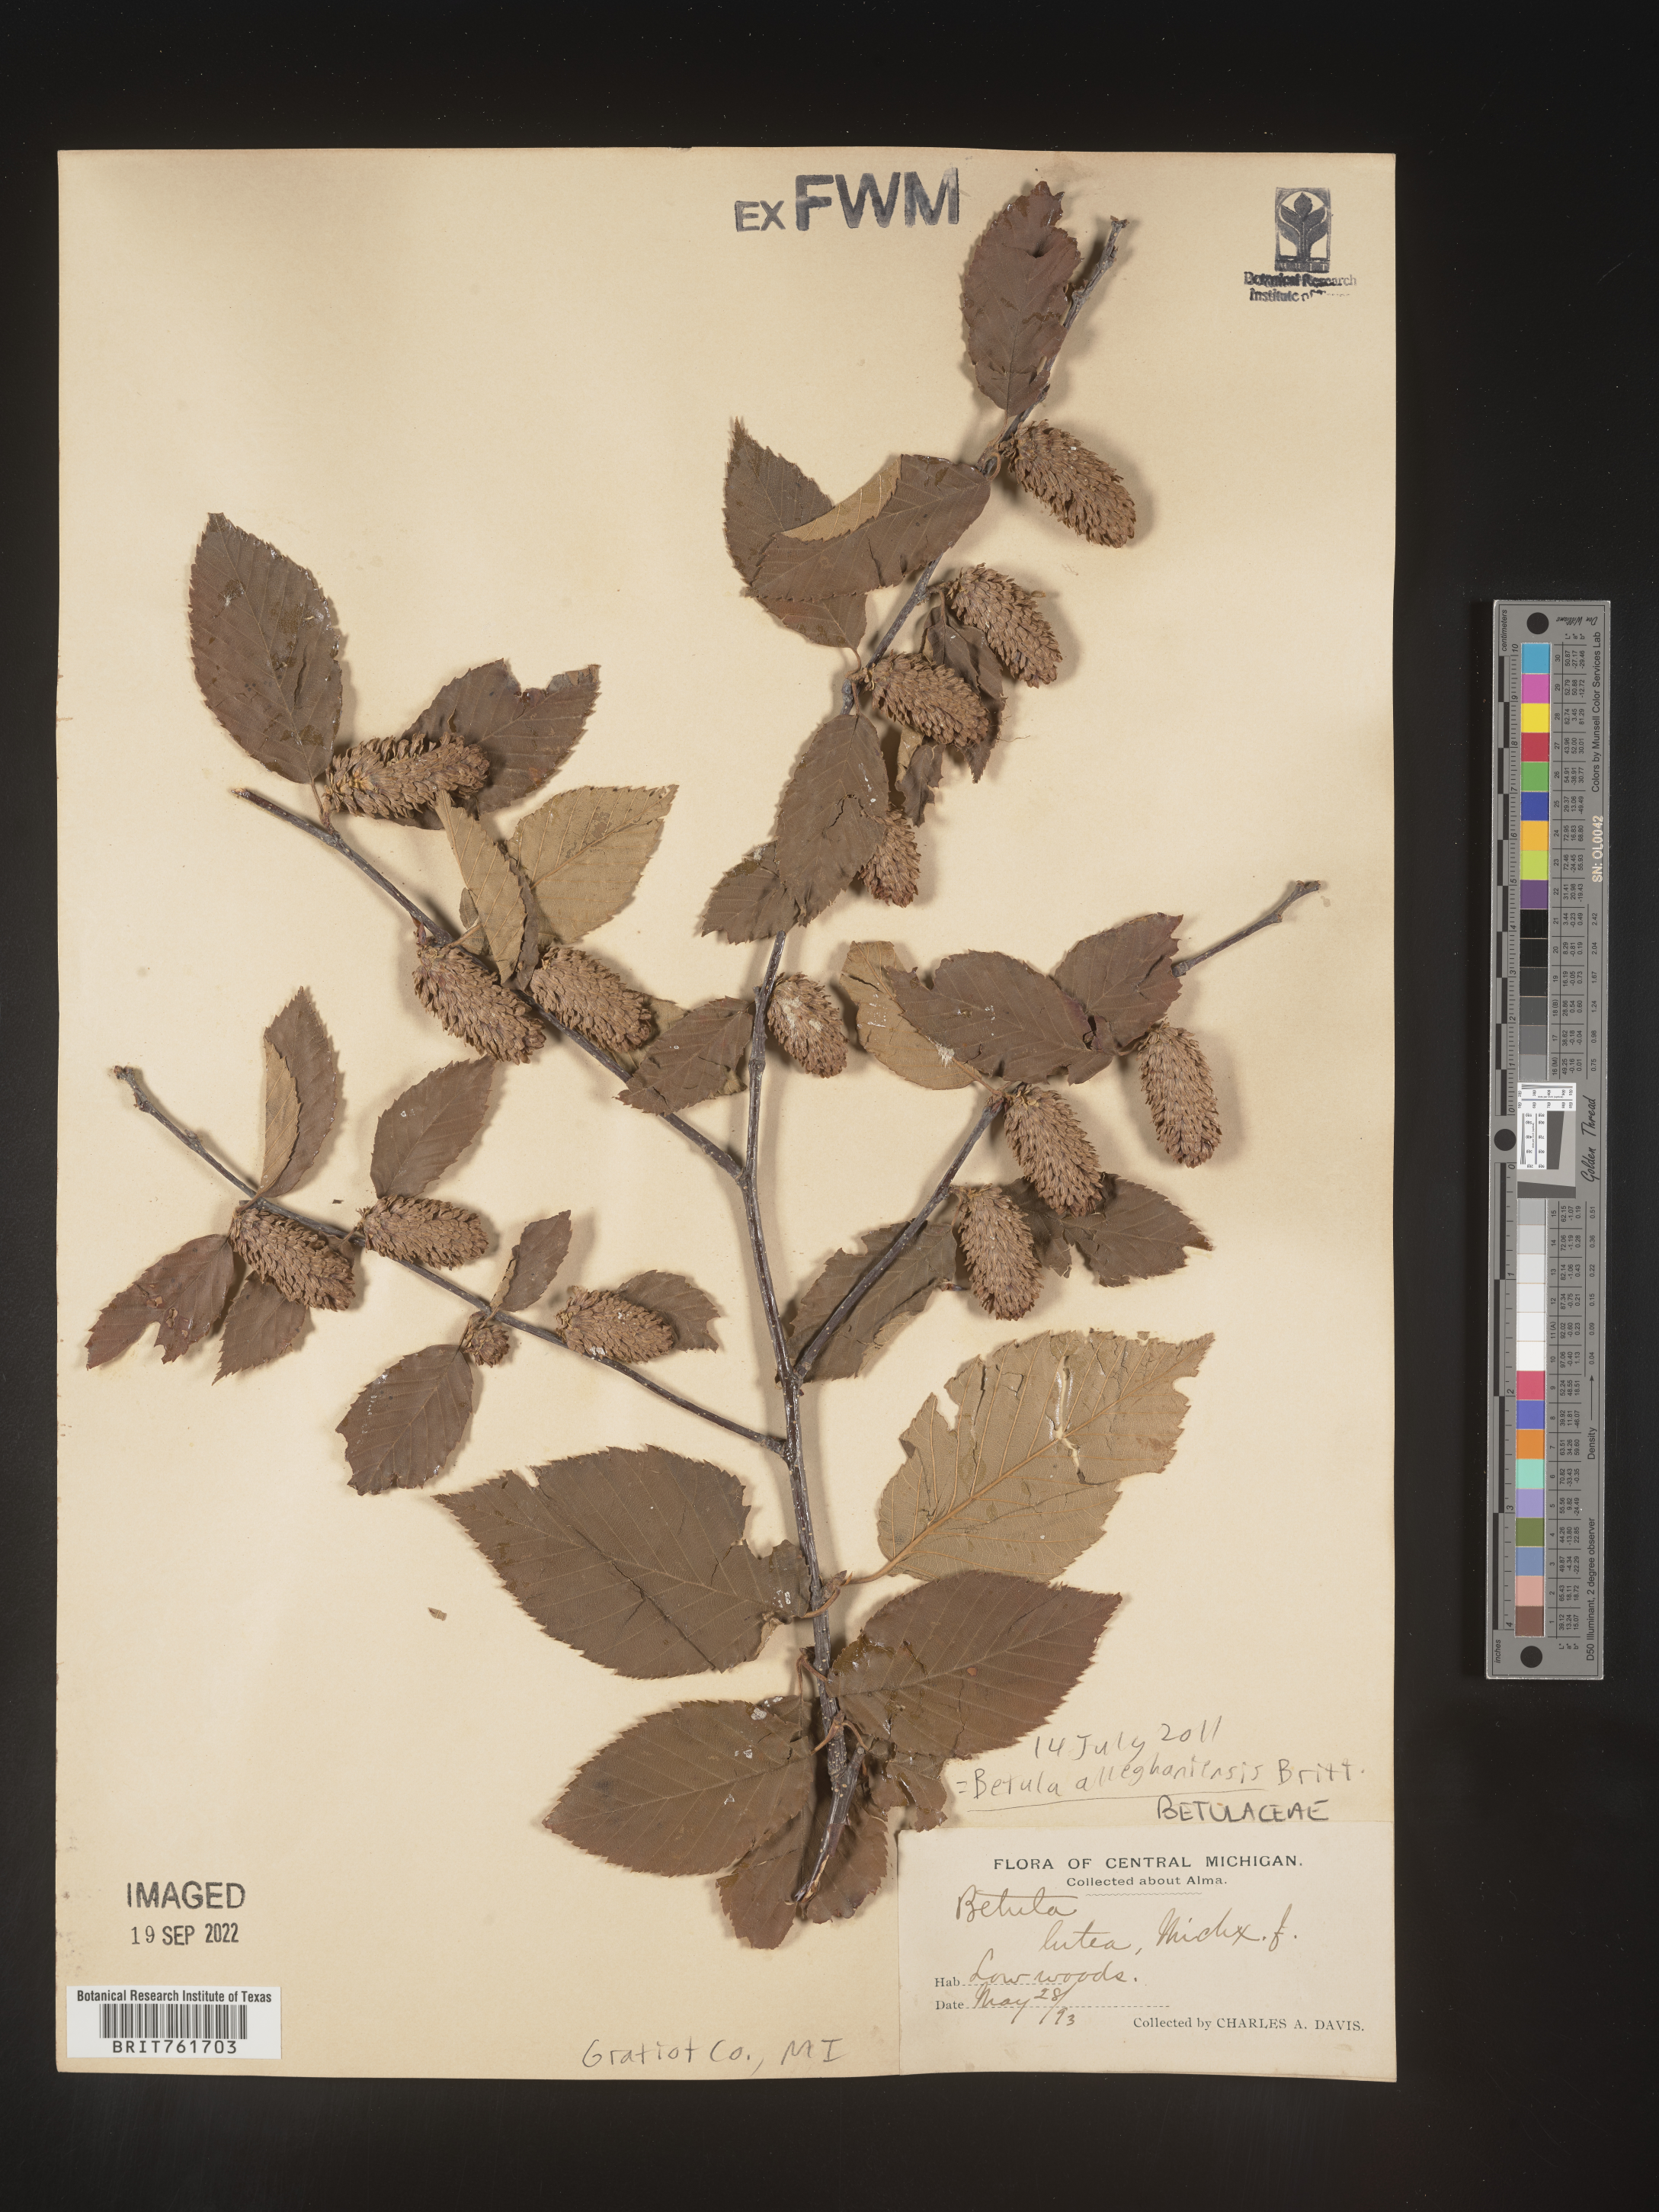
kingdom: Plantae
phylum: Tracheophyta
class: Magnoliopsida
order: Fagales
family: Betulaceae
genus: Betula
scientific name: Betula alleghaniensis
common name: Yellow birch
